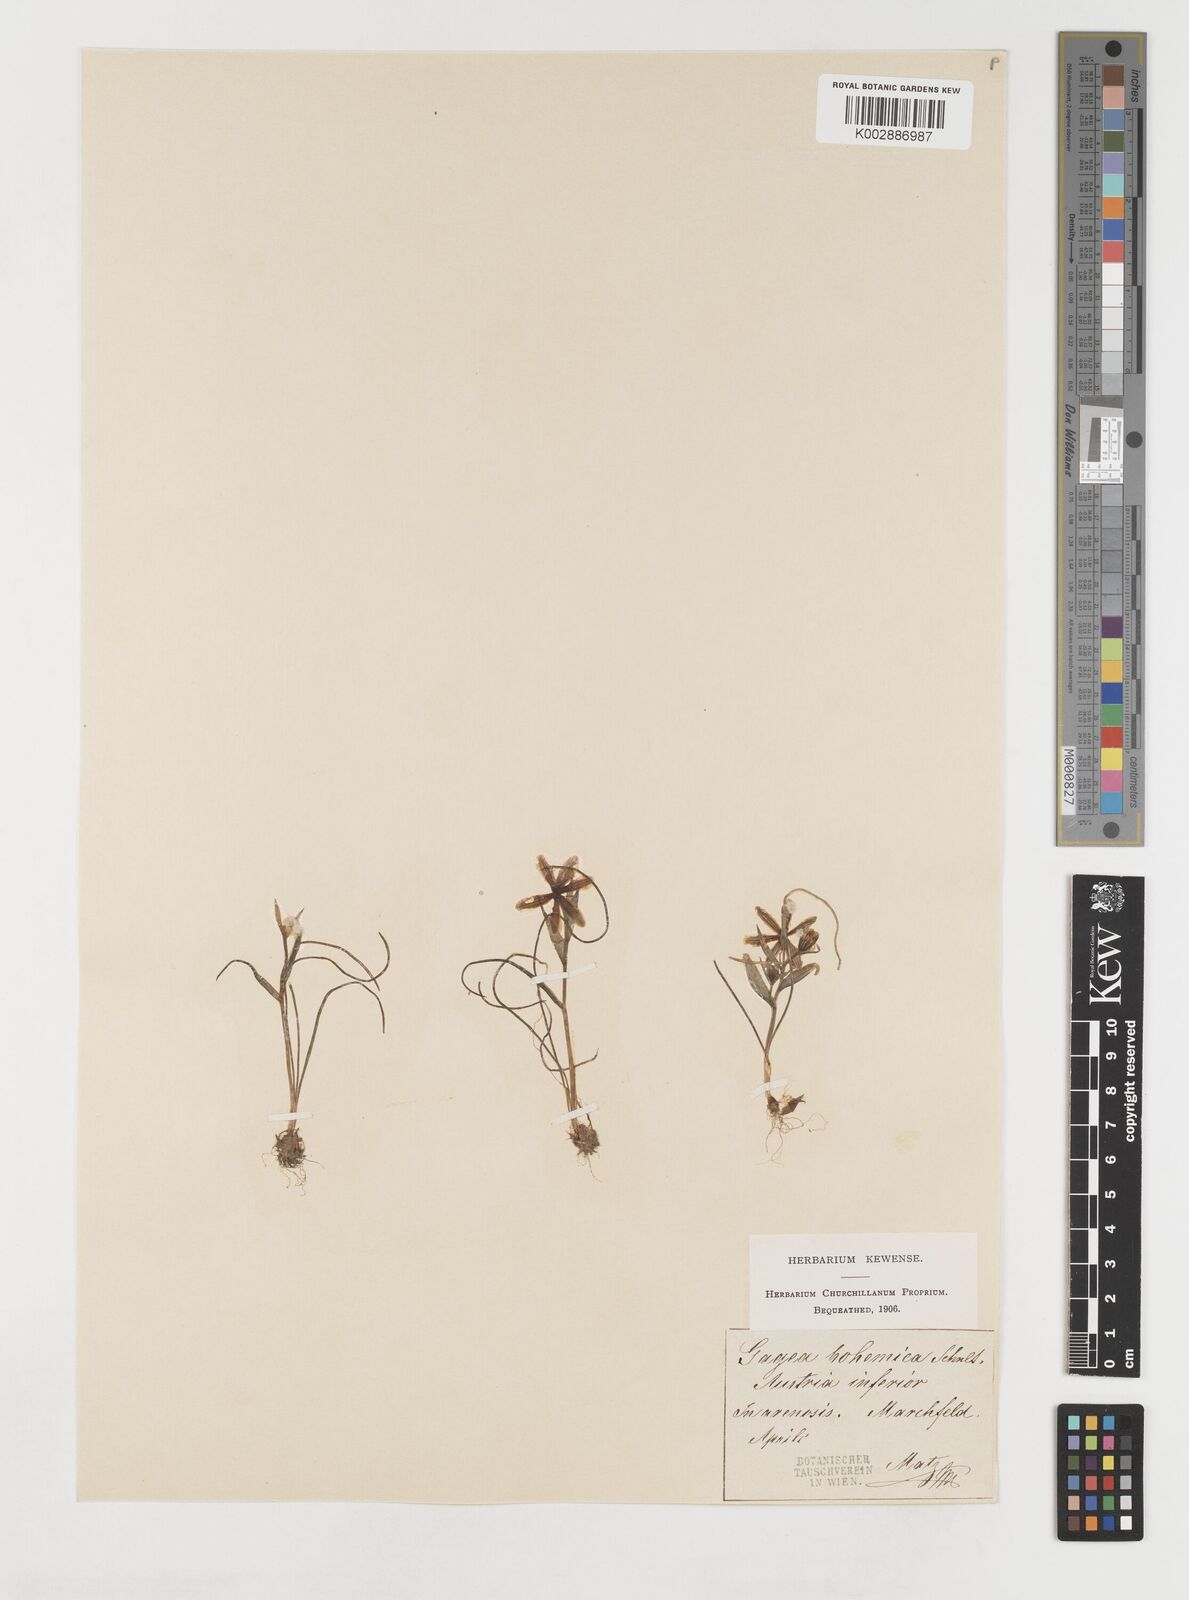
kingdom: Plantae
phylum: Tracheophyta
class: Liliopsida
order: Liliales
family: Liliaceae
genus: Gagea
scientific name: Gagea bohemica
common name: Early star-of-bethlehem
